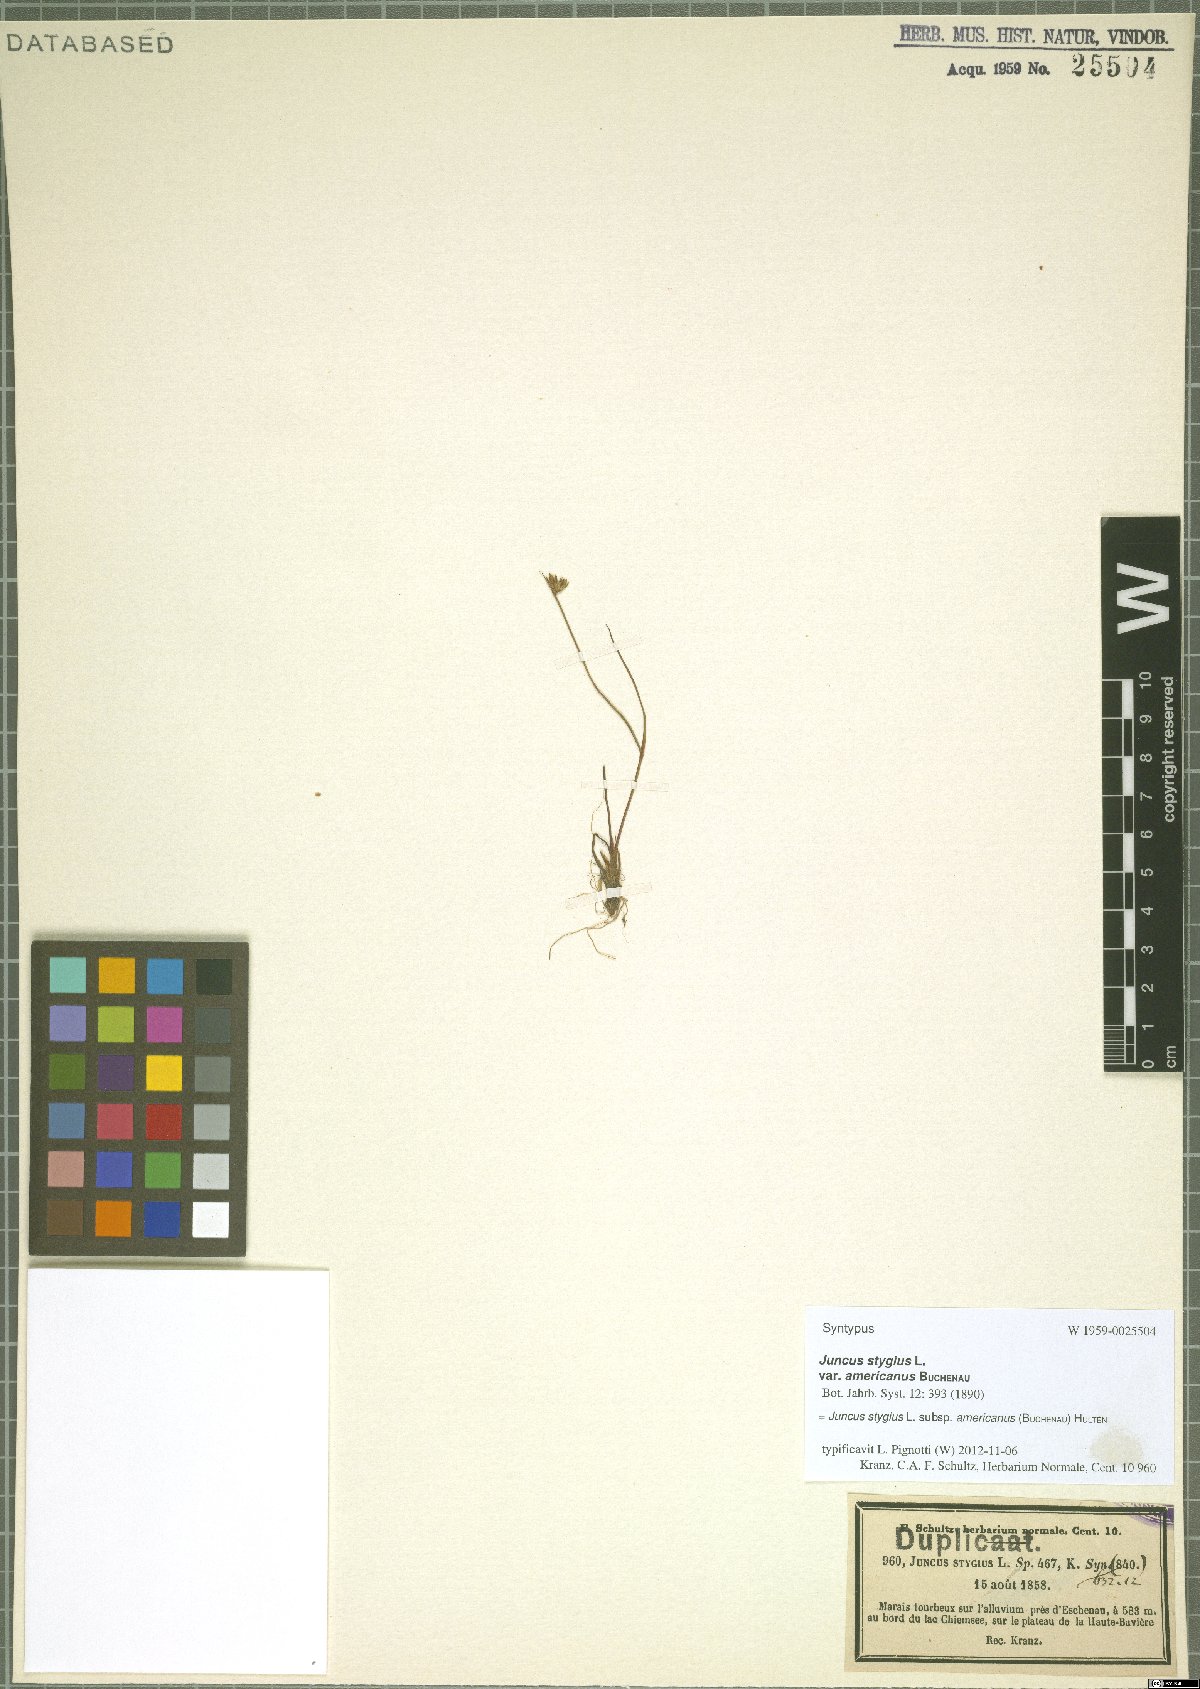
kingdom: Plantae
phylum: Tracheophyta
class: Liliopsida
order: Poales
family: Juncaceae
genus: Juncus
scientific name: Juncus stygius
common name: Bog rush
